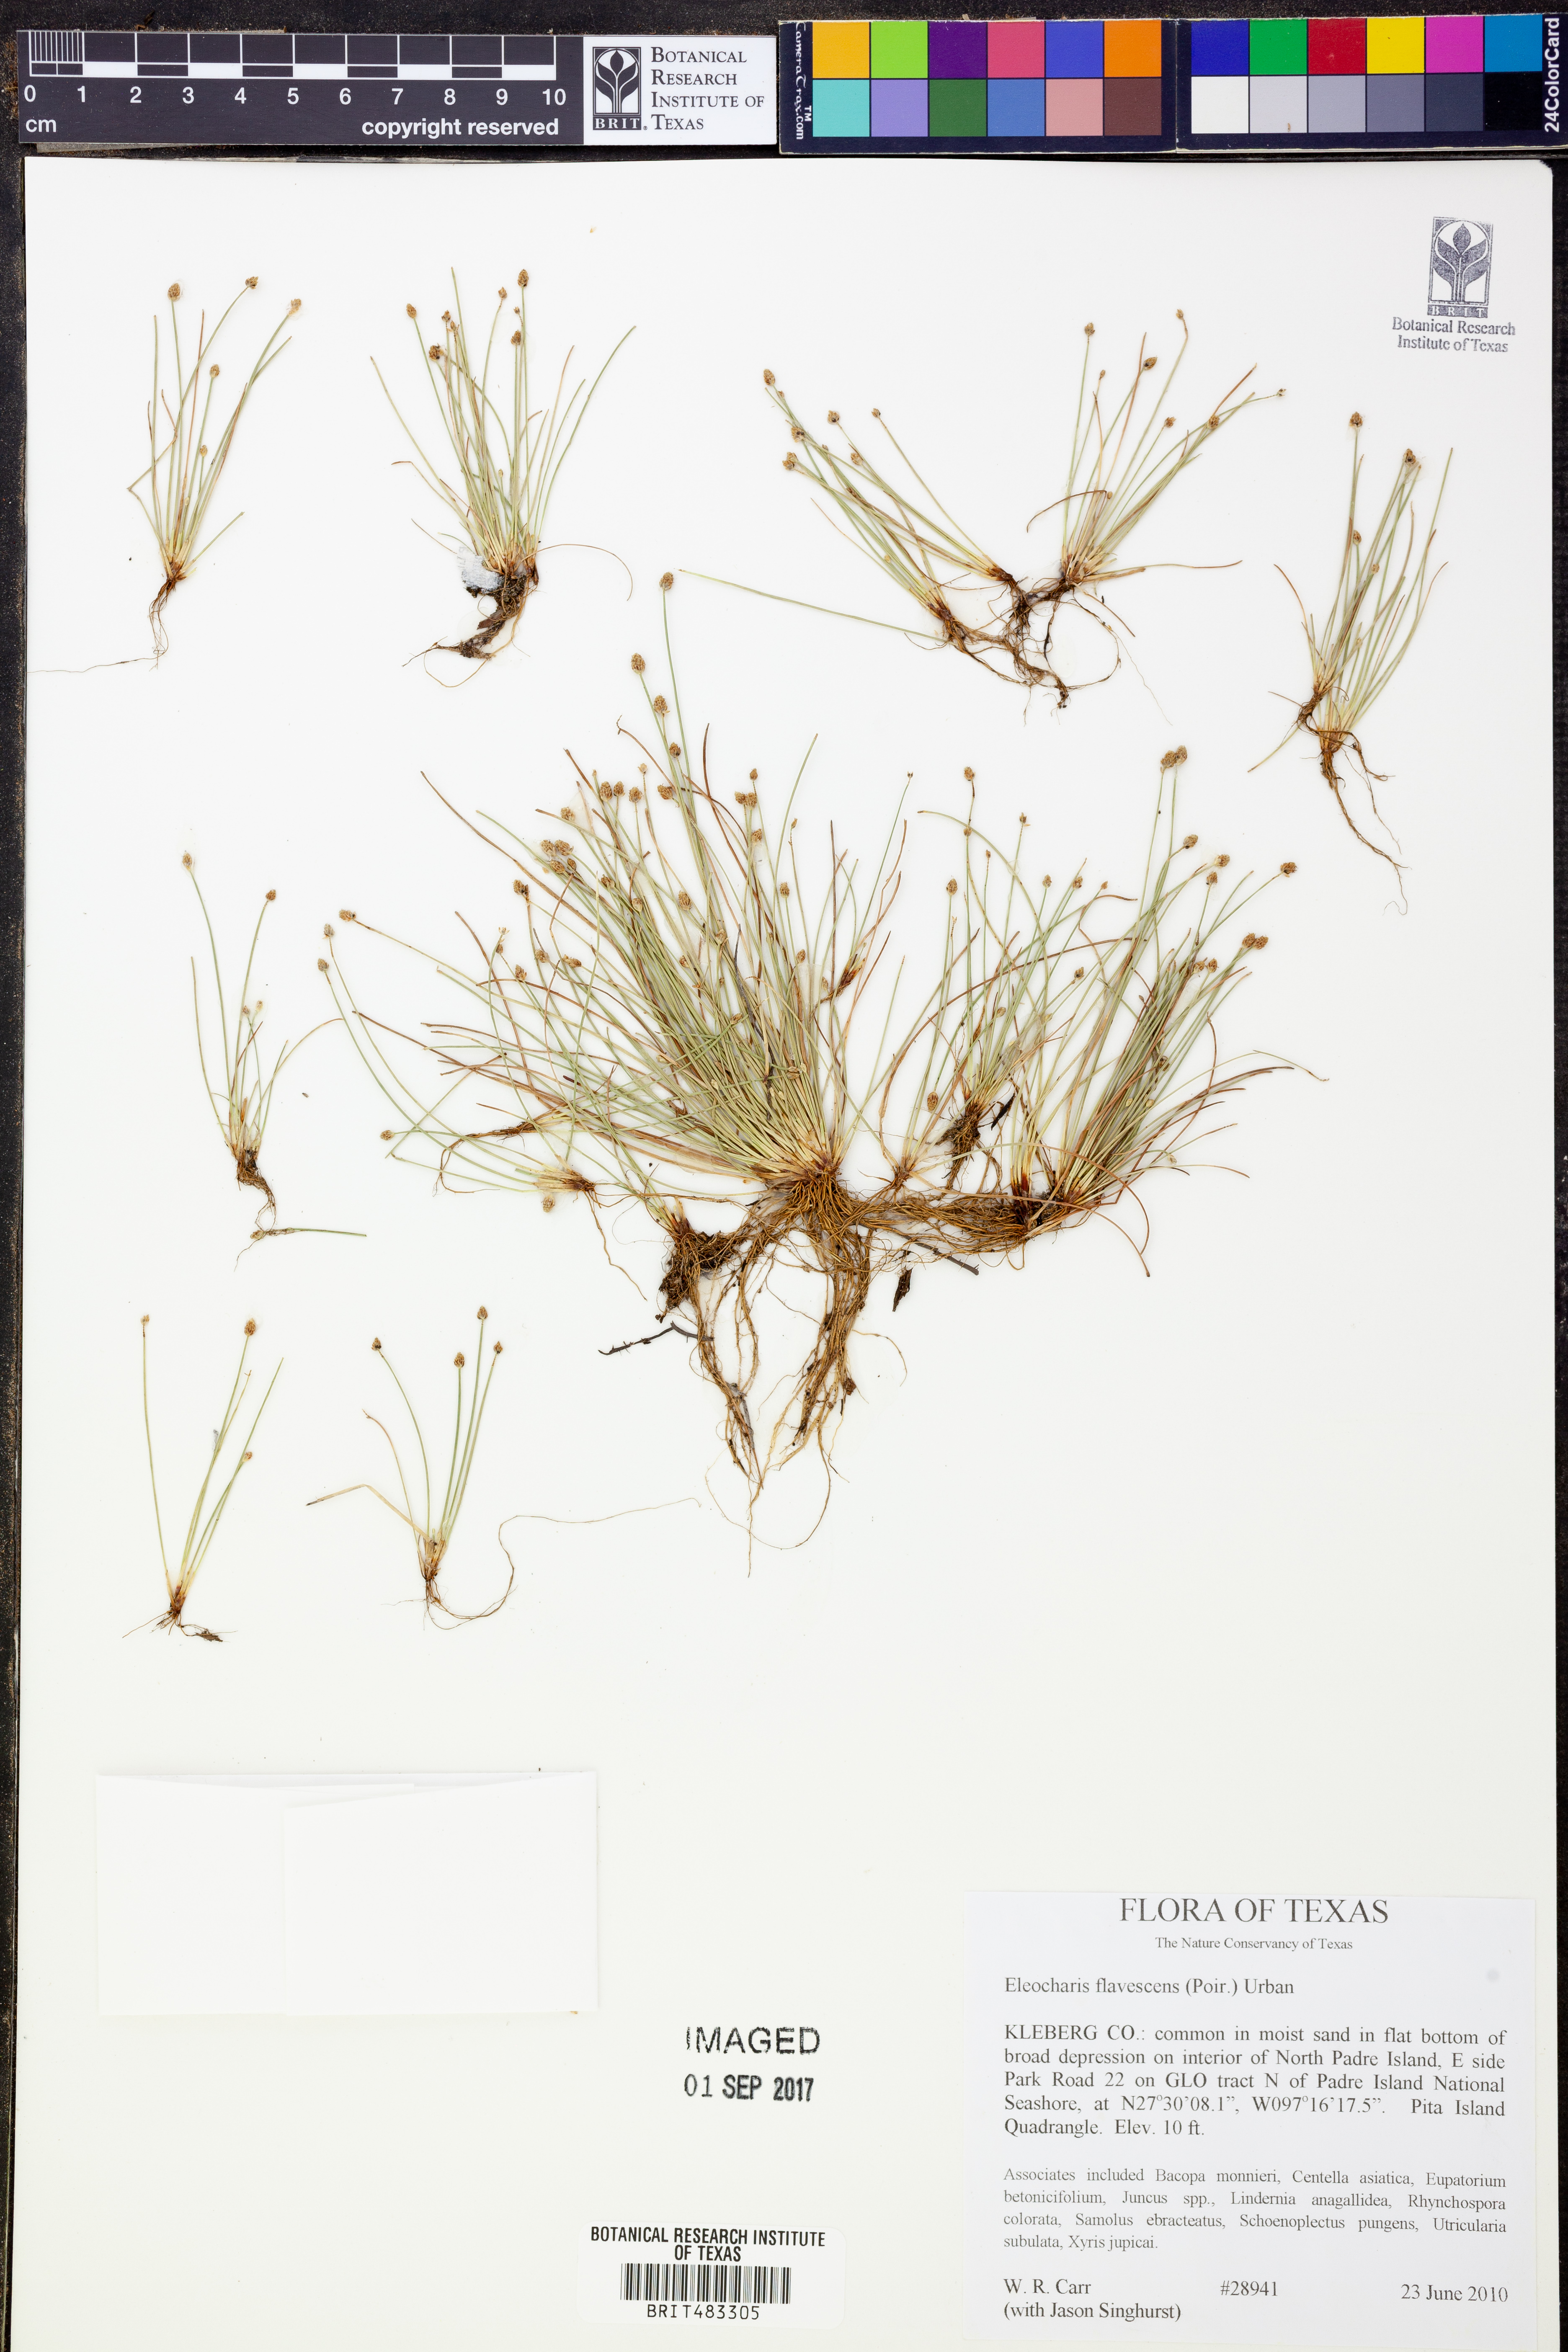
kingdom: Plantae
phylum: Tracheophyta
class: Liliopsida
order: Poales
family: Cyperaceae
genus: Eleocharis
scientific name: Eleocharis flavescens
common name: Yellow spikerush
